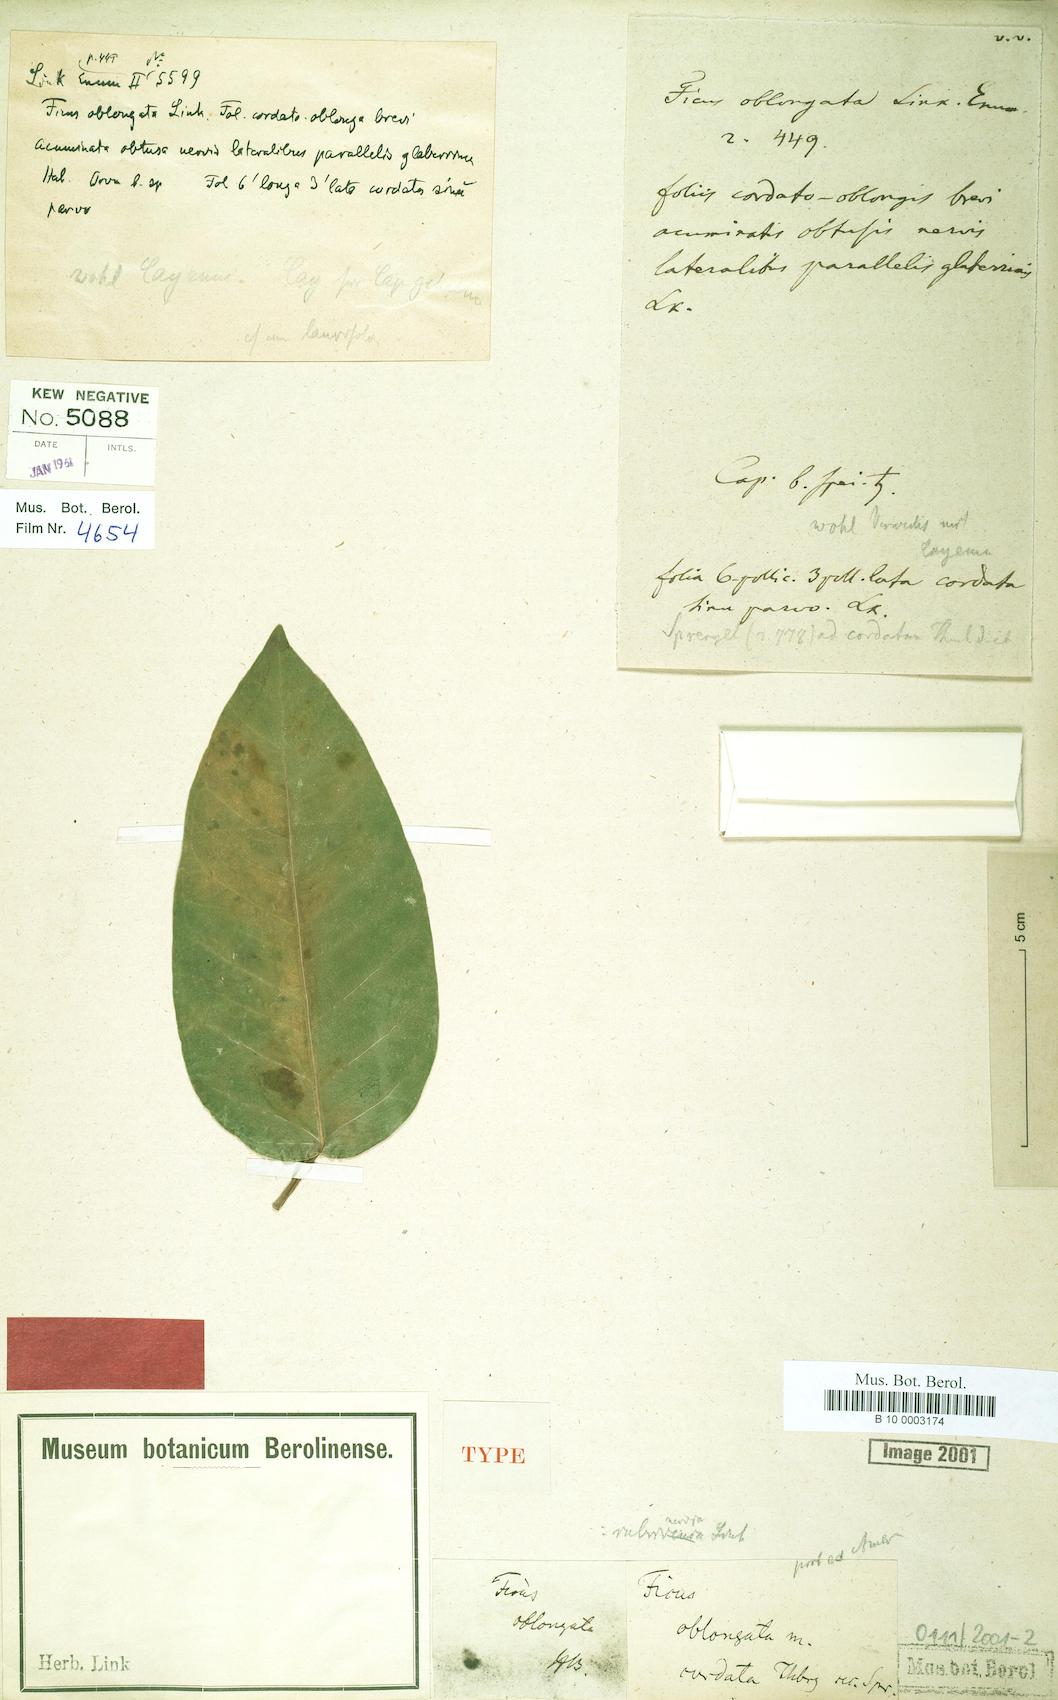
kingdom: Plantae
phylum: Tracheophyta
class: Magnoliopsida
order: Rosales
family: Moraceae
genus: Ficus
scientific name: Ficus citrifolia
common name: Strangler fig
